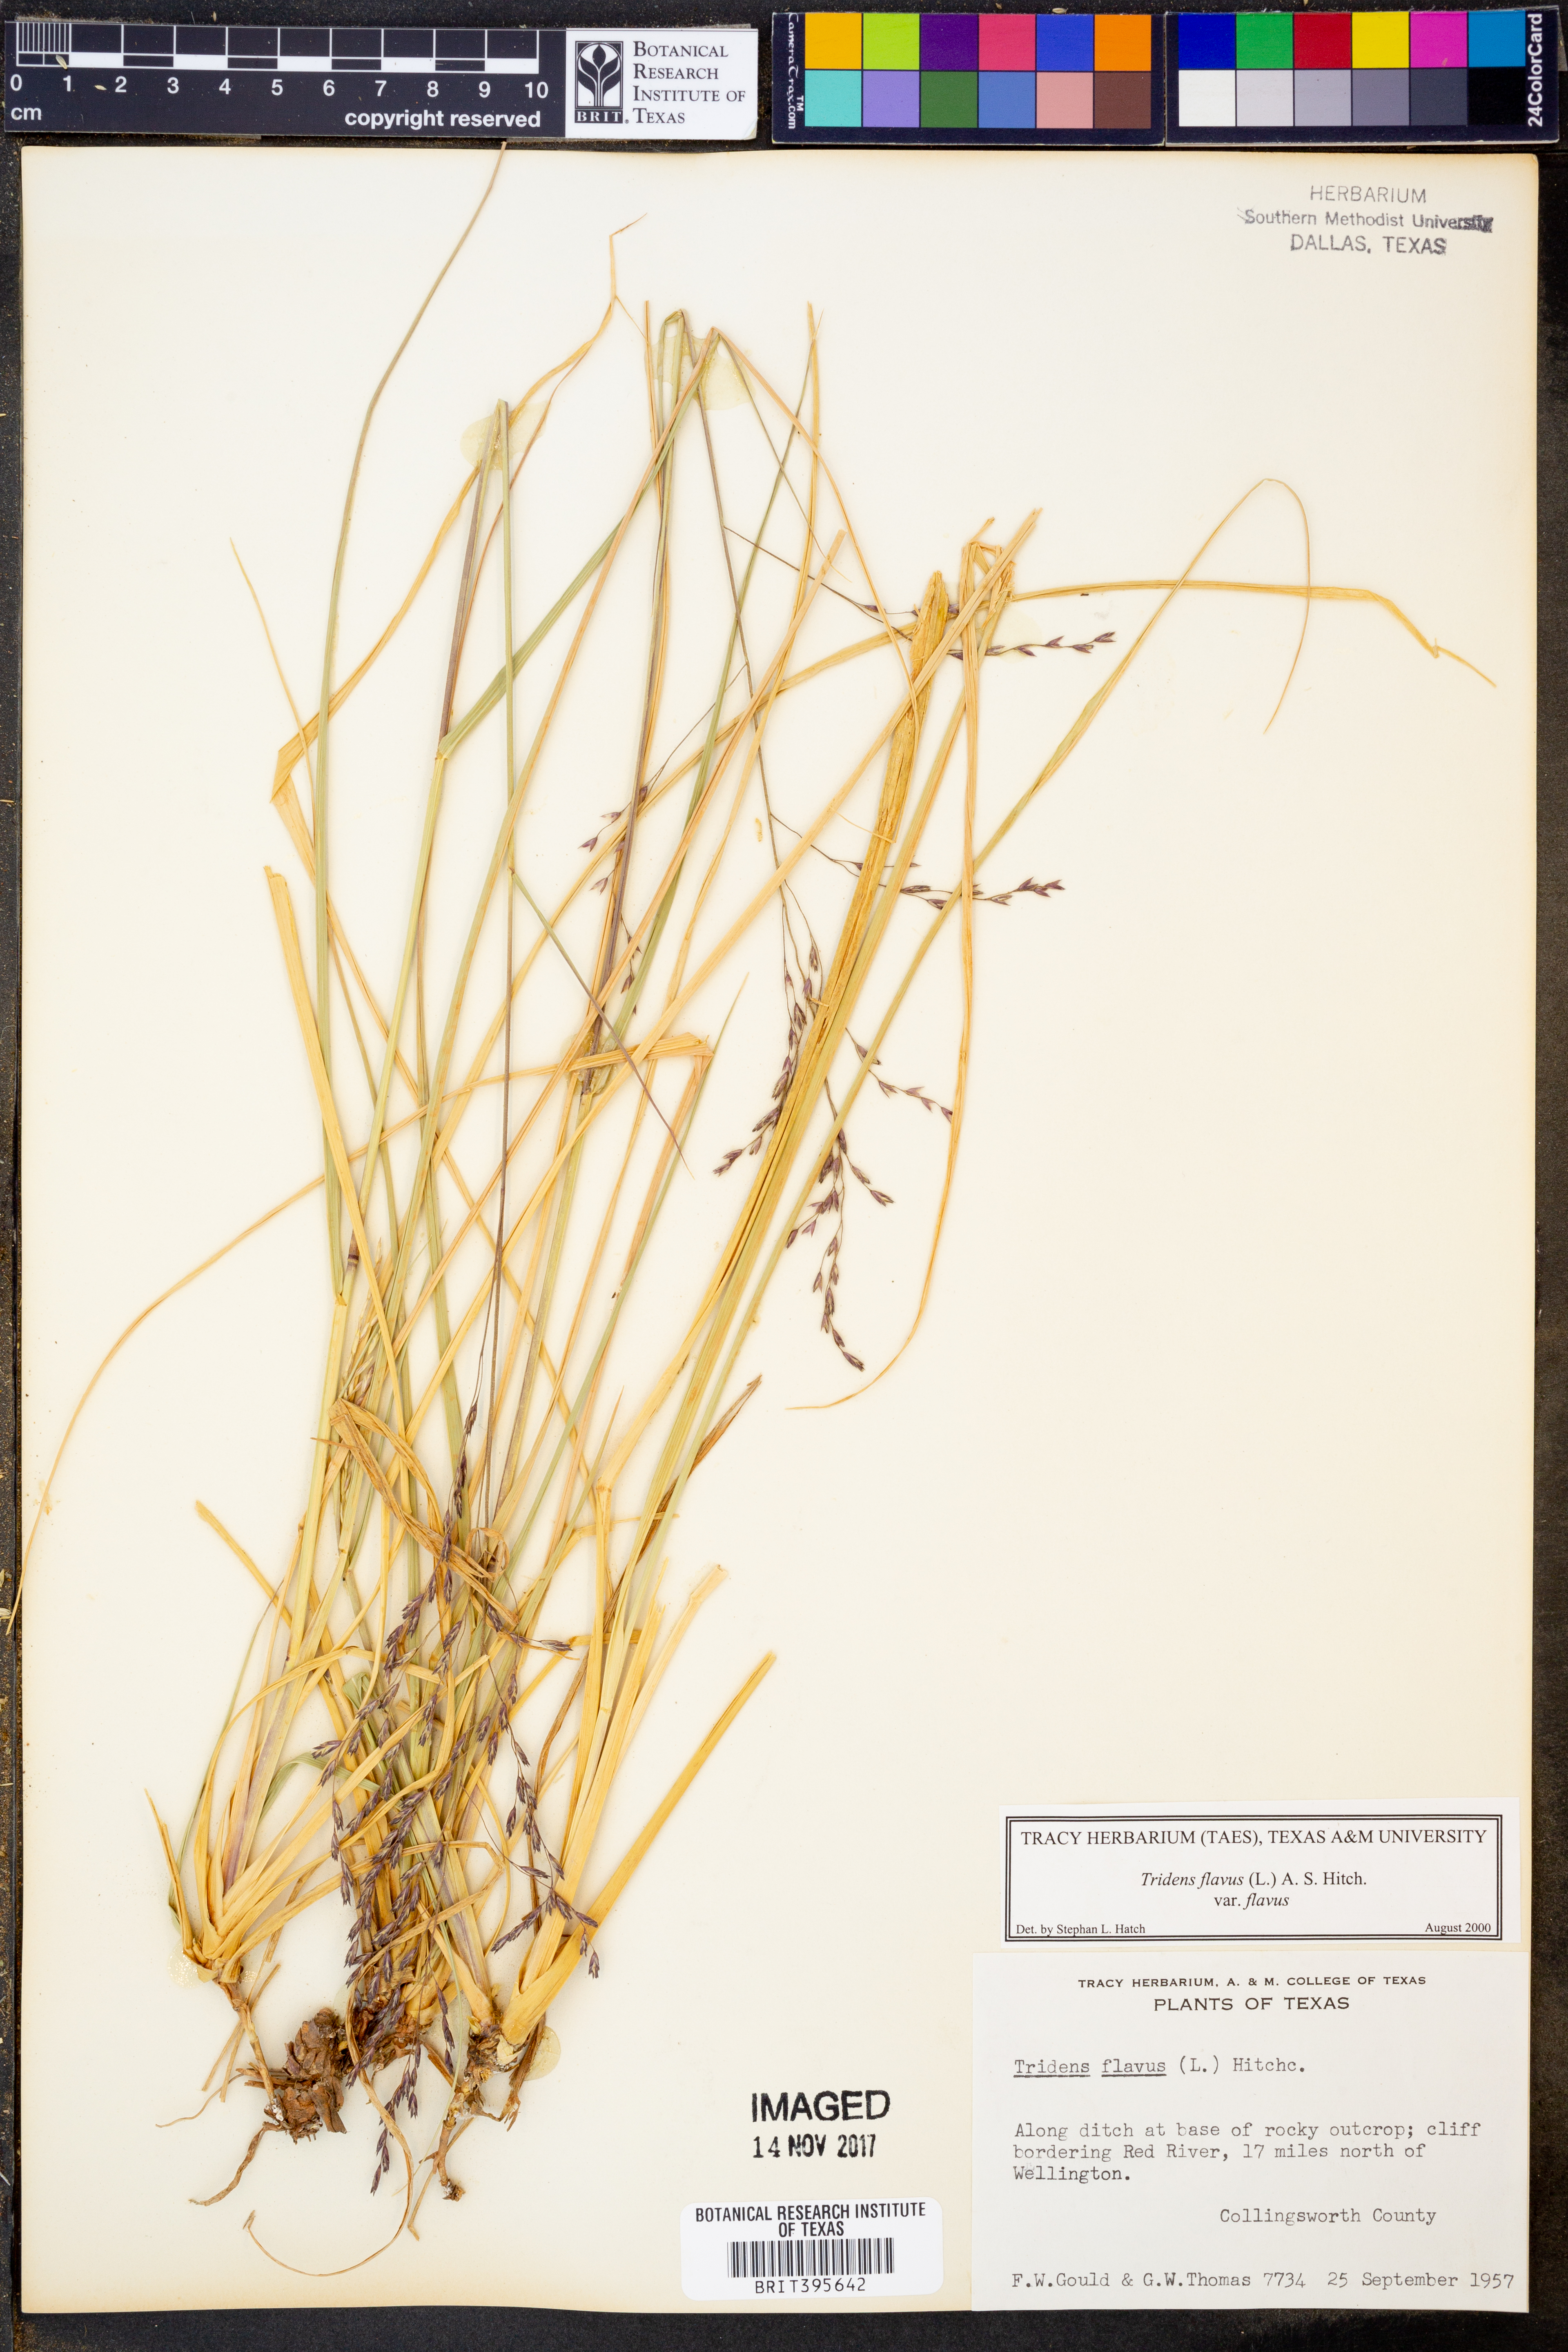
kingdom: Plantae
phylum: Tracheophyta
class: Liliopsida
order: Poales
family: Poaceae
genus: Tridens
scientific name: Tridens flavus
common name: Purpletop
